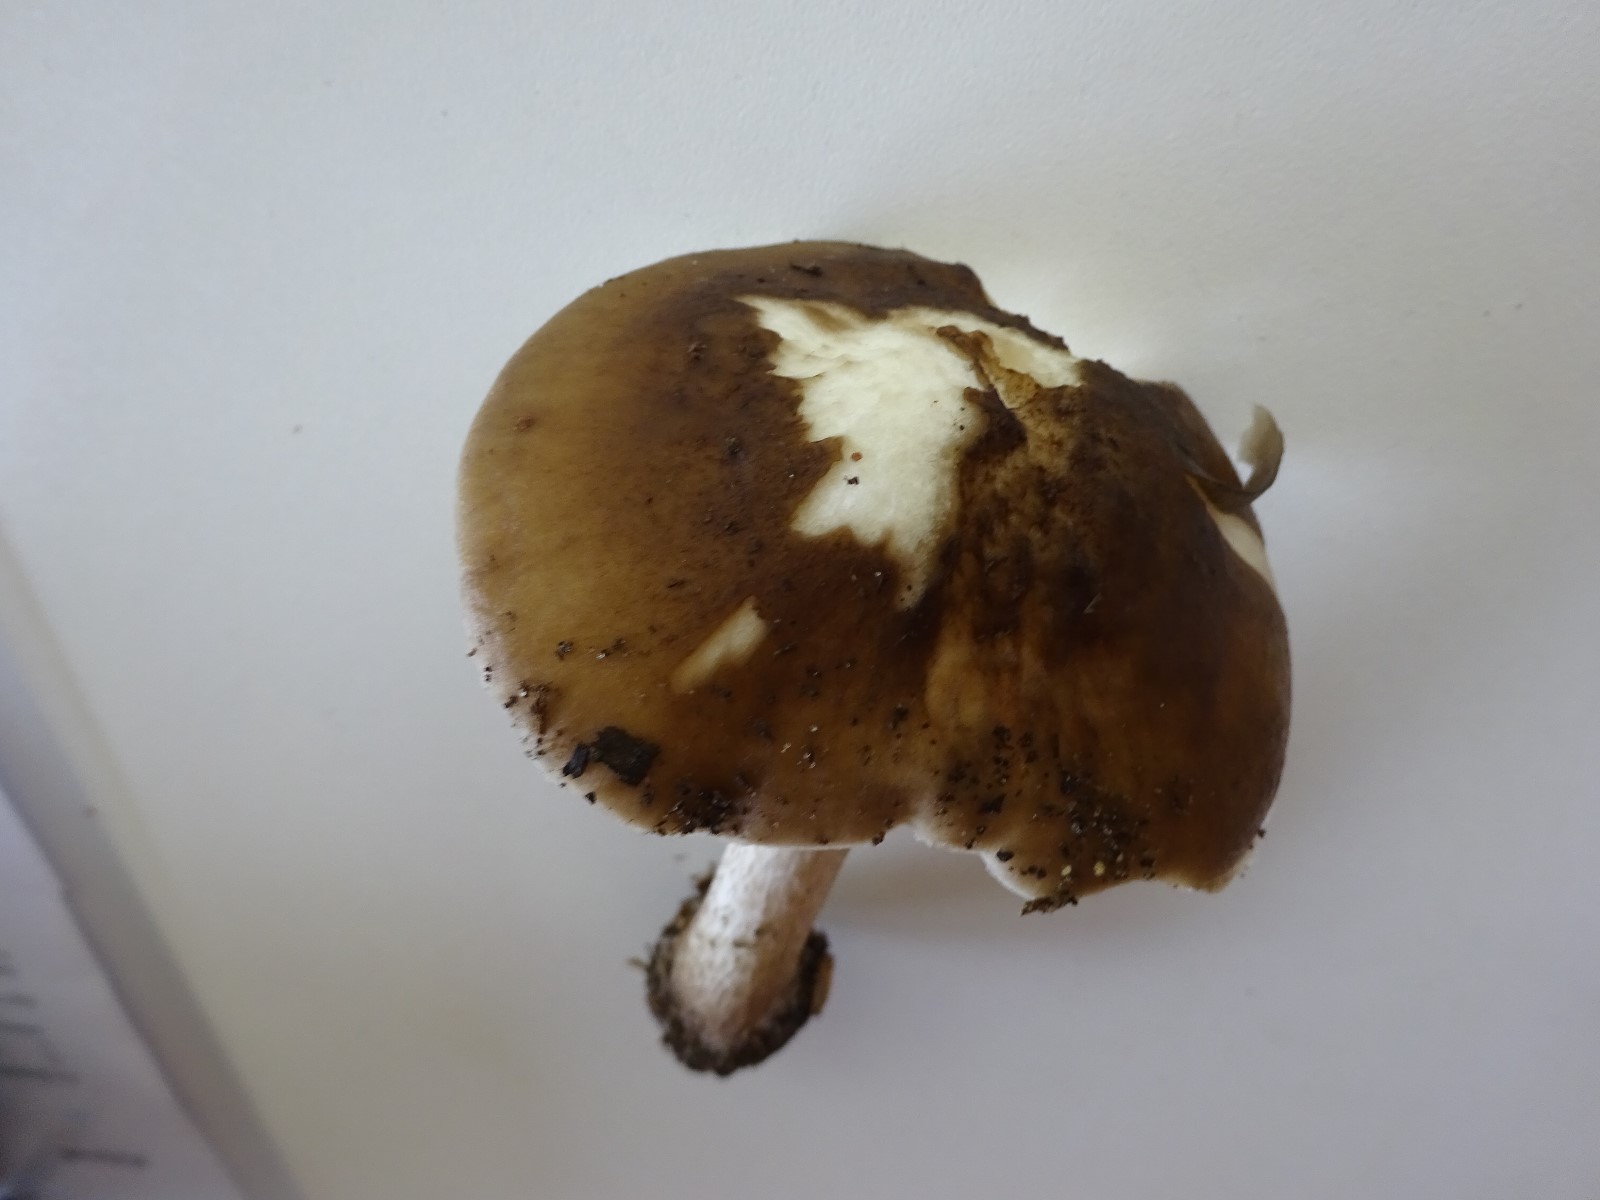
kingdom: Fungi
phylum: Basidiomycota
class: Agaricomycetes
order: Agaricales
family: Pluteaceae
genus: Pluteus
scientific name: Pluteus cervinus
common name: sodfarvet skærmhat
